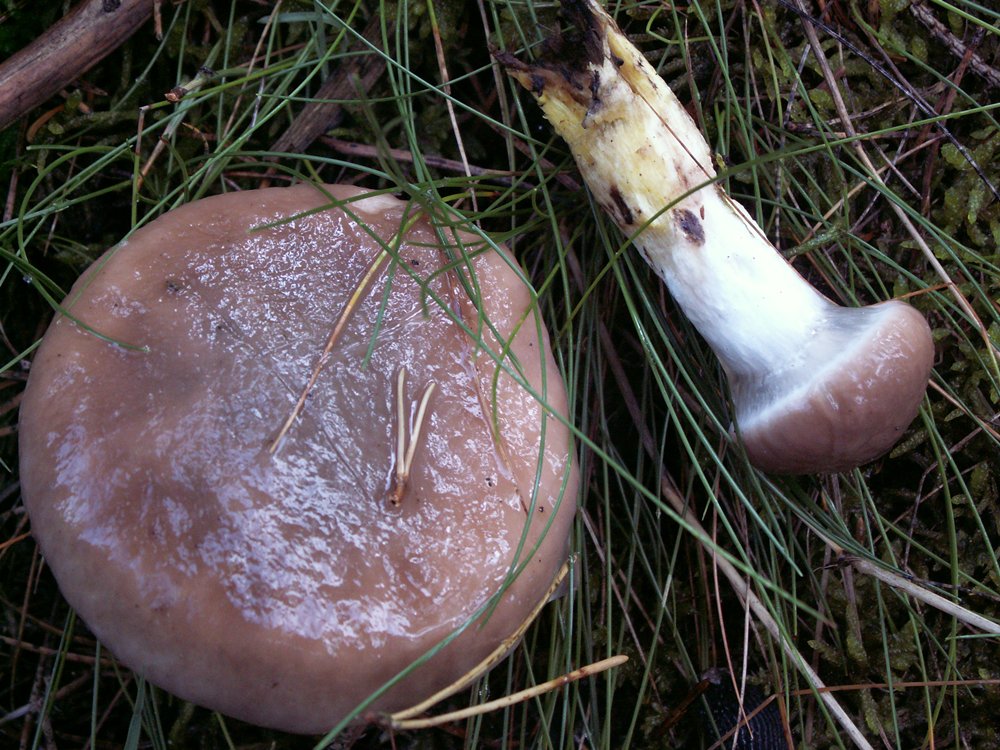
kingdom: Fungi
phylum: Basidiomycota
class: Agaricomycetes
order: Boletales
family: Gomphidiaceae
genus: Gomphidius
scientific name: Gomphidius glutinosus
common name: grå slimslør
